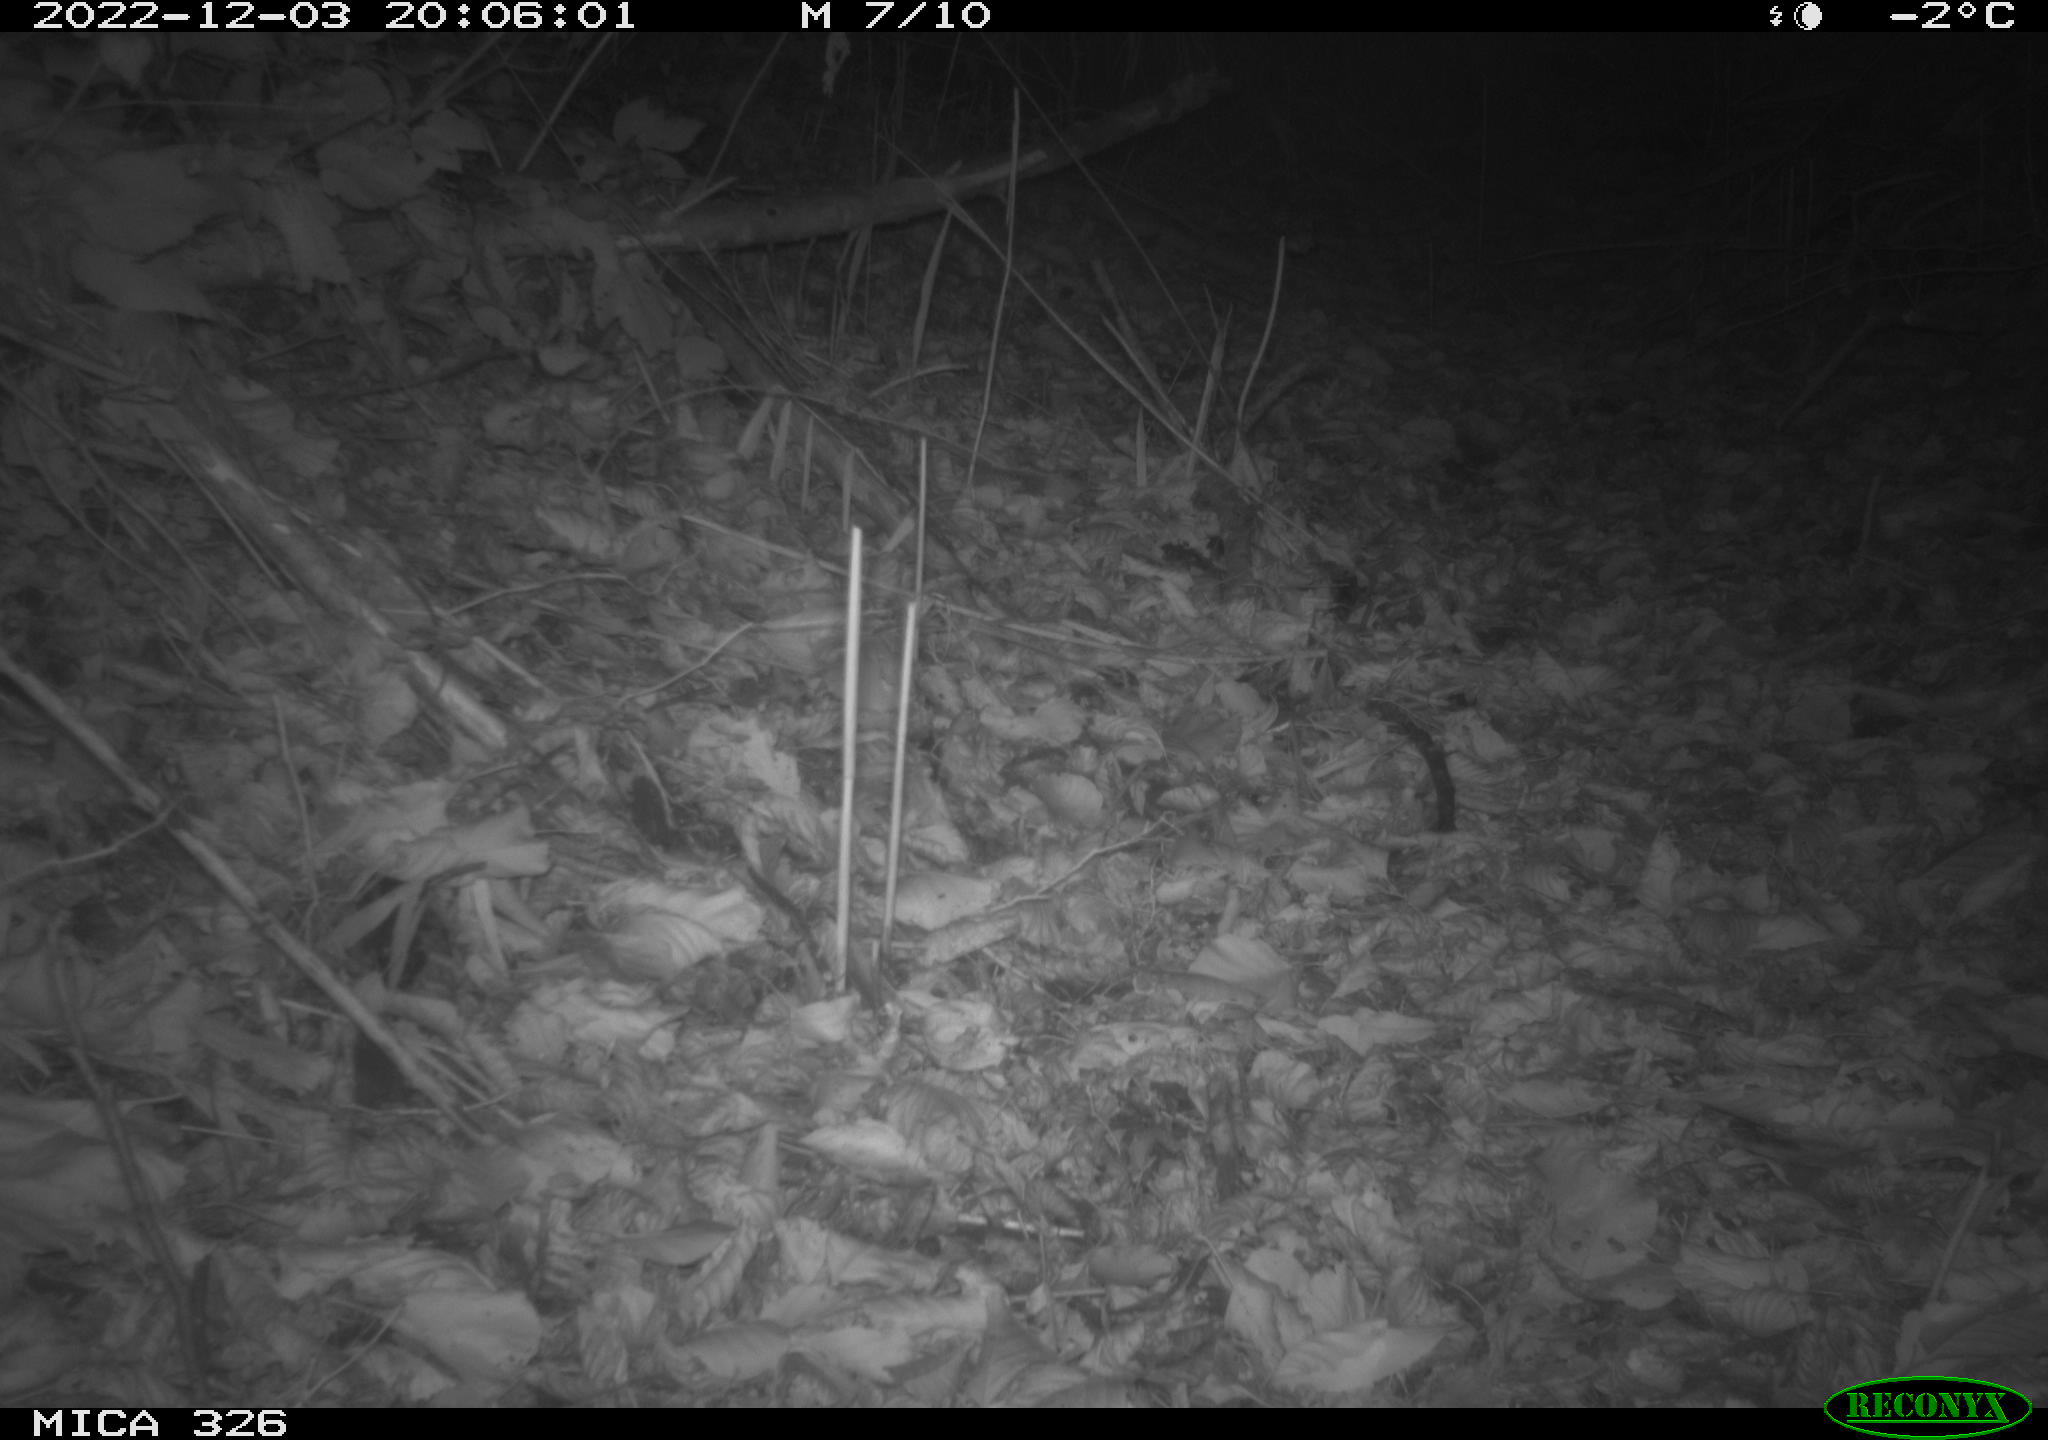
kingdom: Animalia
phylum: Chordata
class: Mammalia
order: Carnivora
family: Canidae
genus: Vulpes
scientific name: Vulpes vulpes
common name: Red fox
